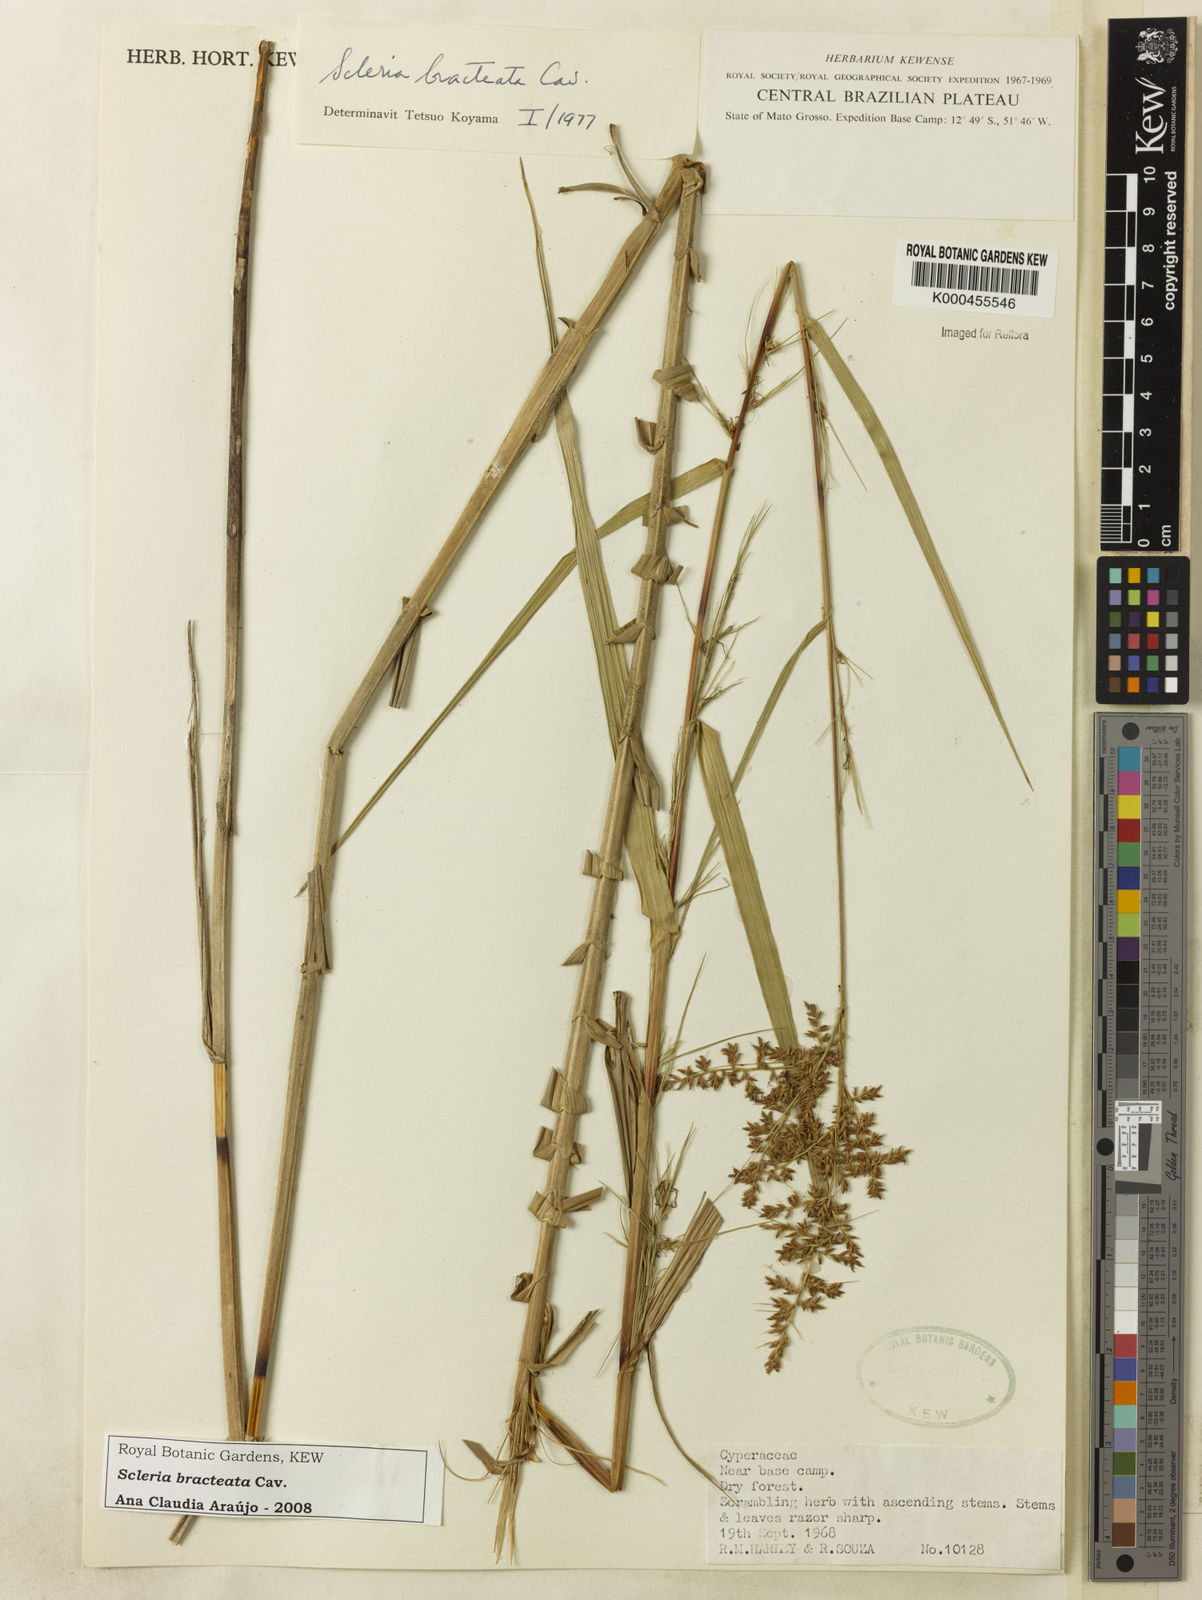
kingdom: Plantae
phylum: Tracheophyta
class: Liliopsida
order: Poales
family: Cyperaceae
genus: Scleria
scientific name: Scleria bracteata
